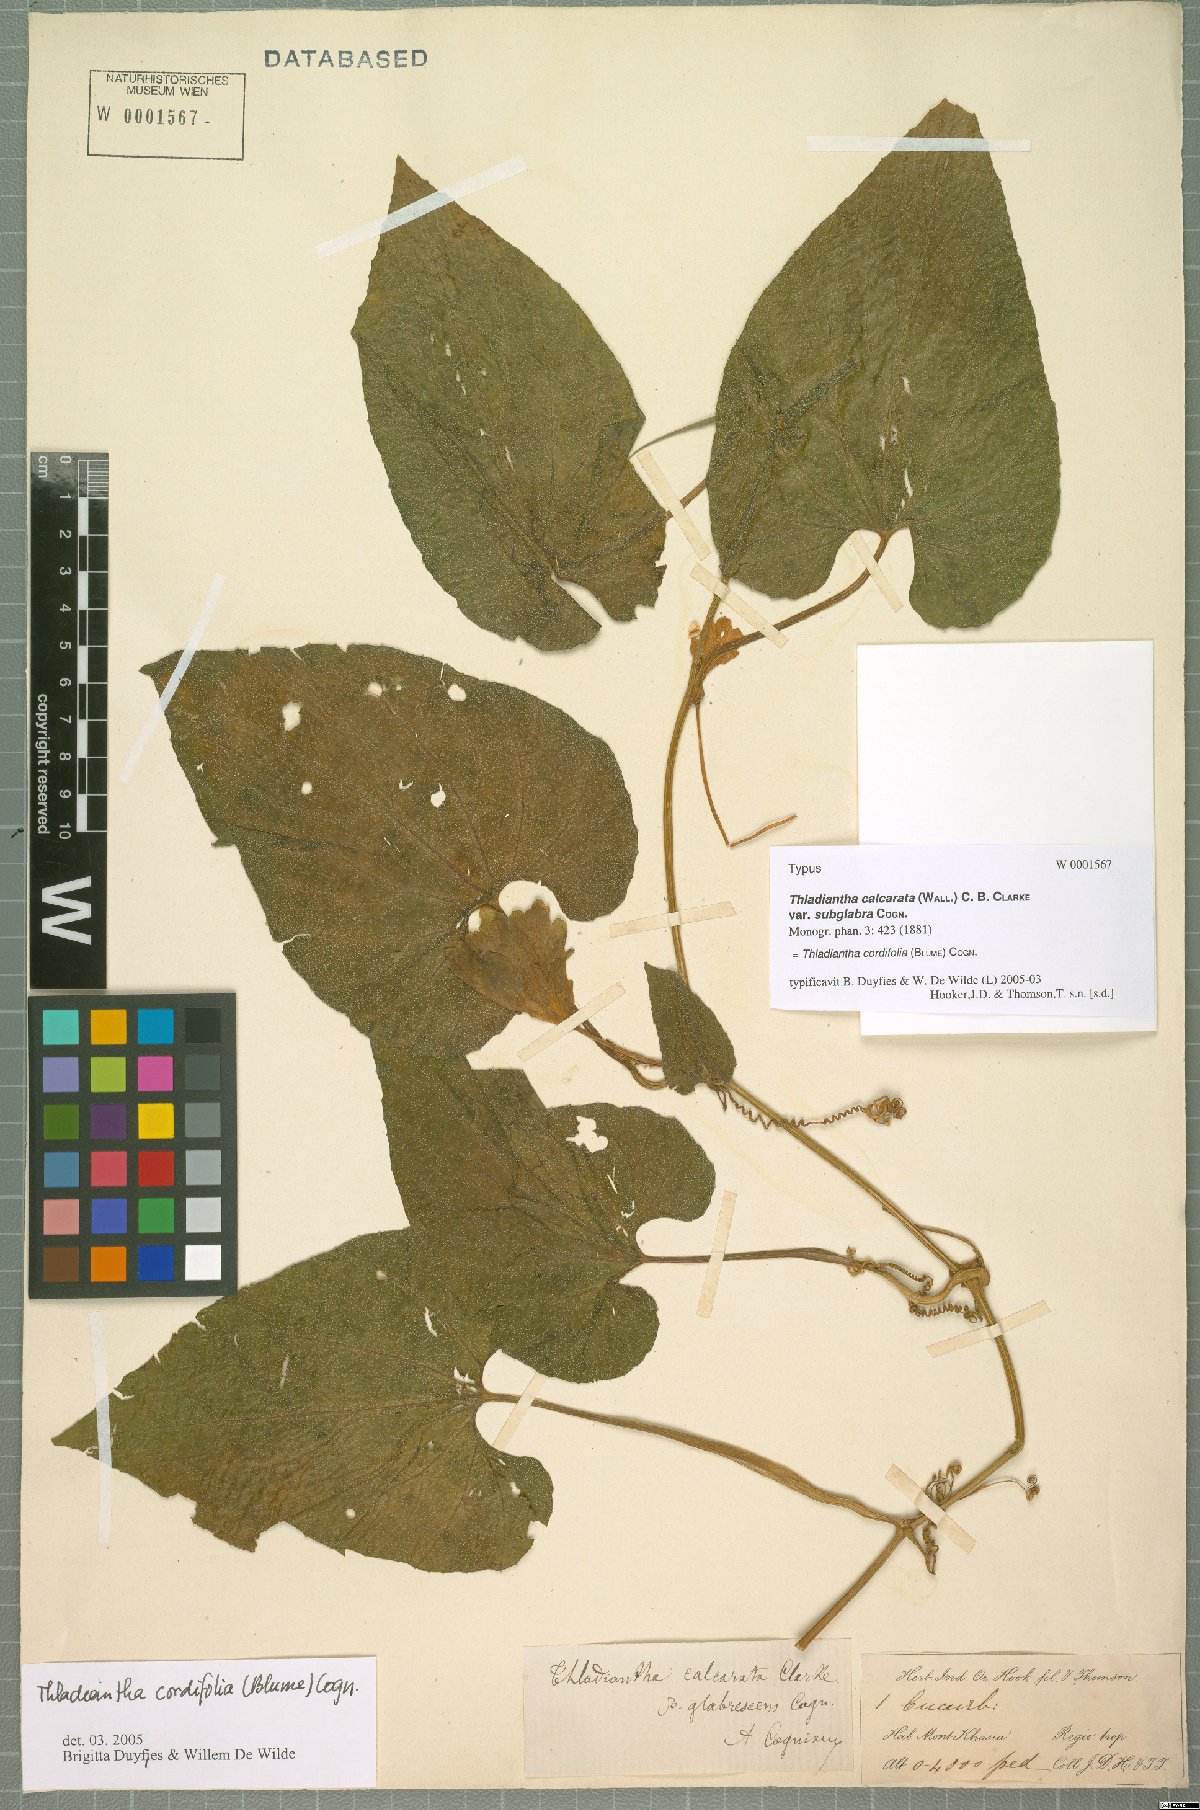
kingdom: Plantae
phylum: Tracheophyta
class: Magnoliopsida
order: Cucurbitales
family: Cucurbitaceae
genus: Thladiantha
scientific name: Thladiantha cordifolia
